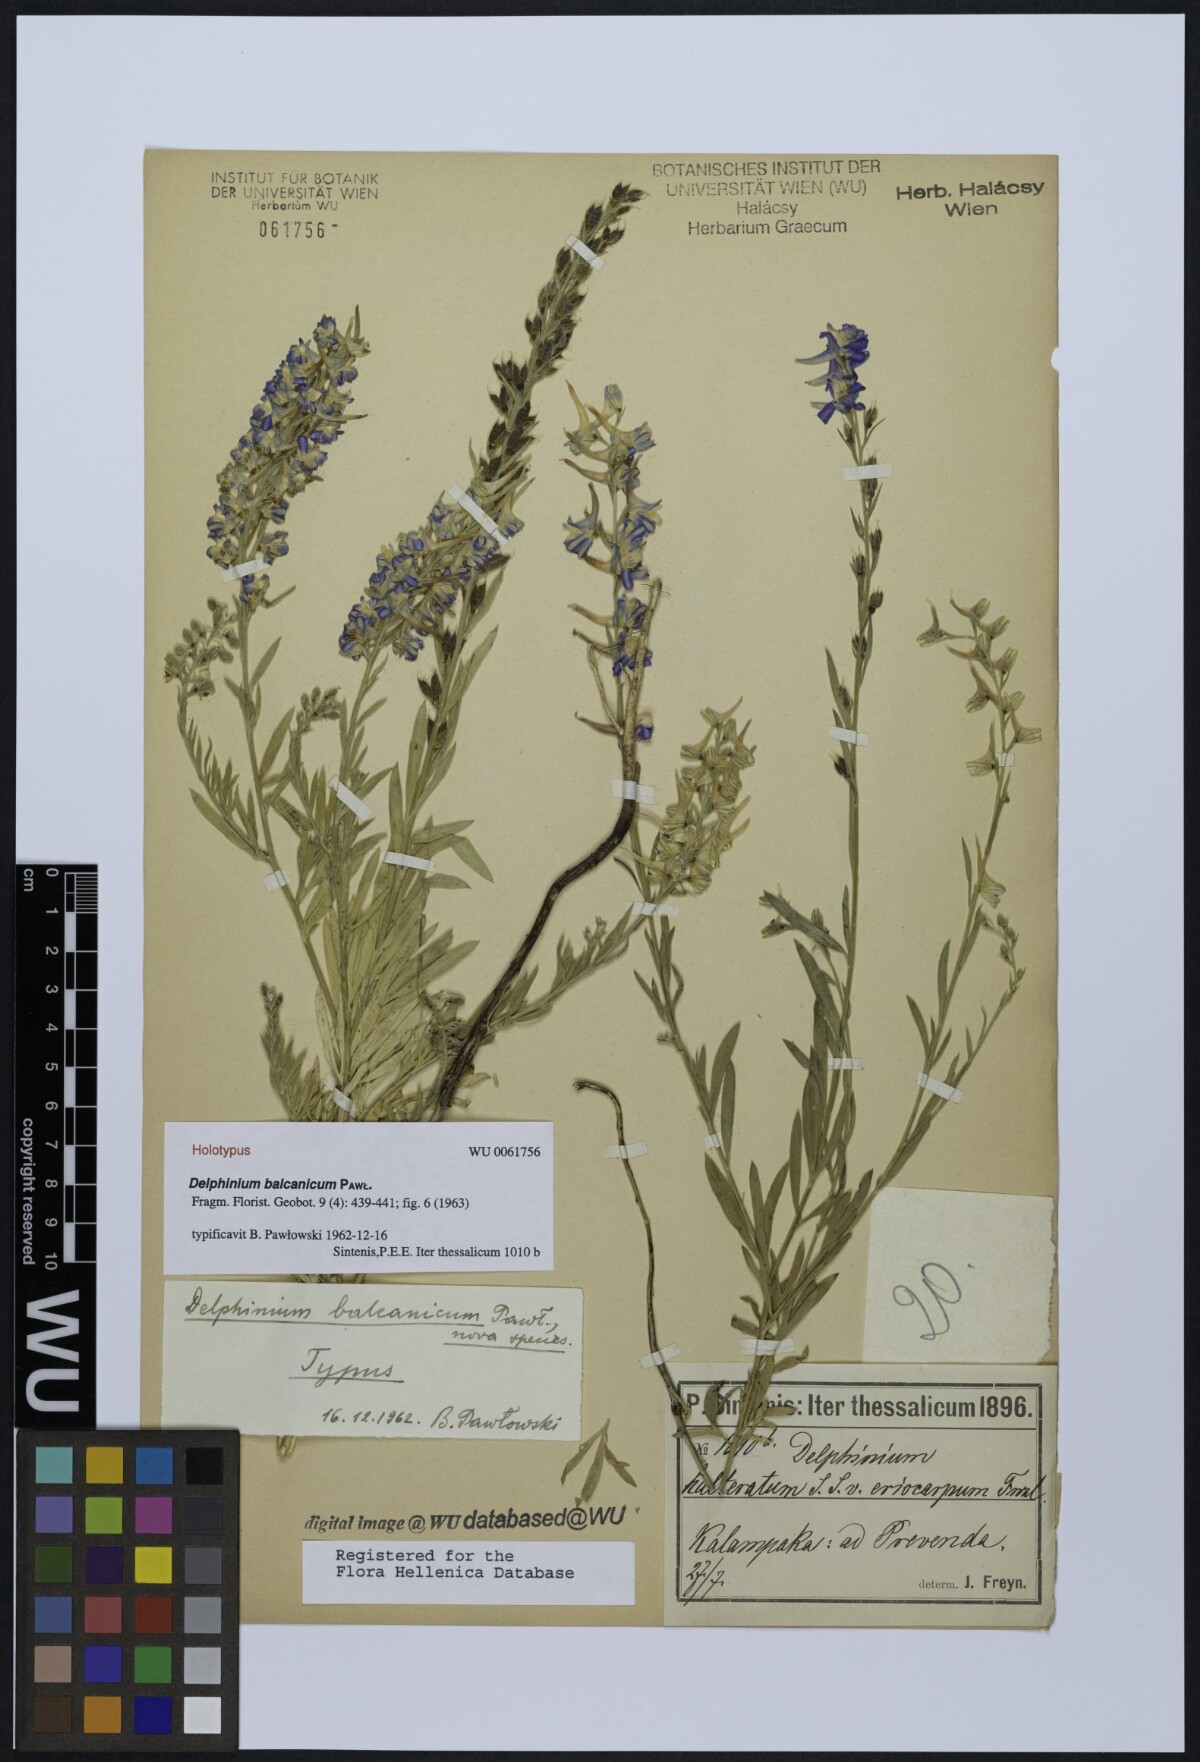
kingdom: Plantae
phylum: Tracheophyta
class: Magnoliopsida
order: Ranunculales
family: Ranunculaceae
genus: Delphinium
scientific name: Delphinium balcanicum
